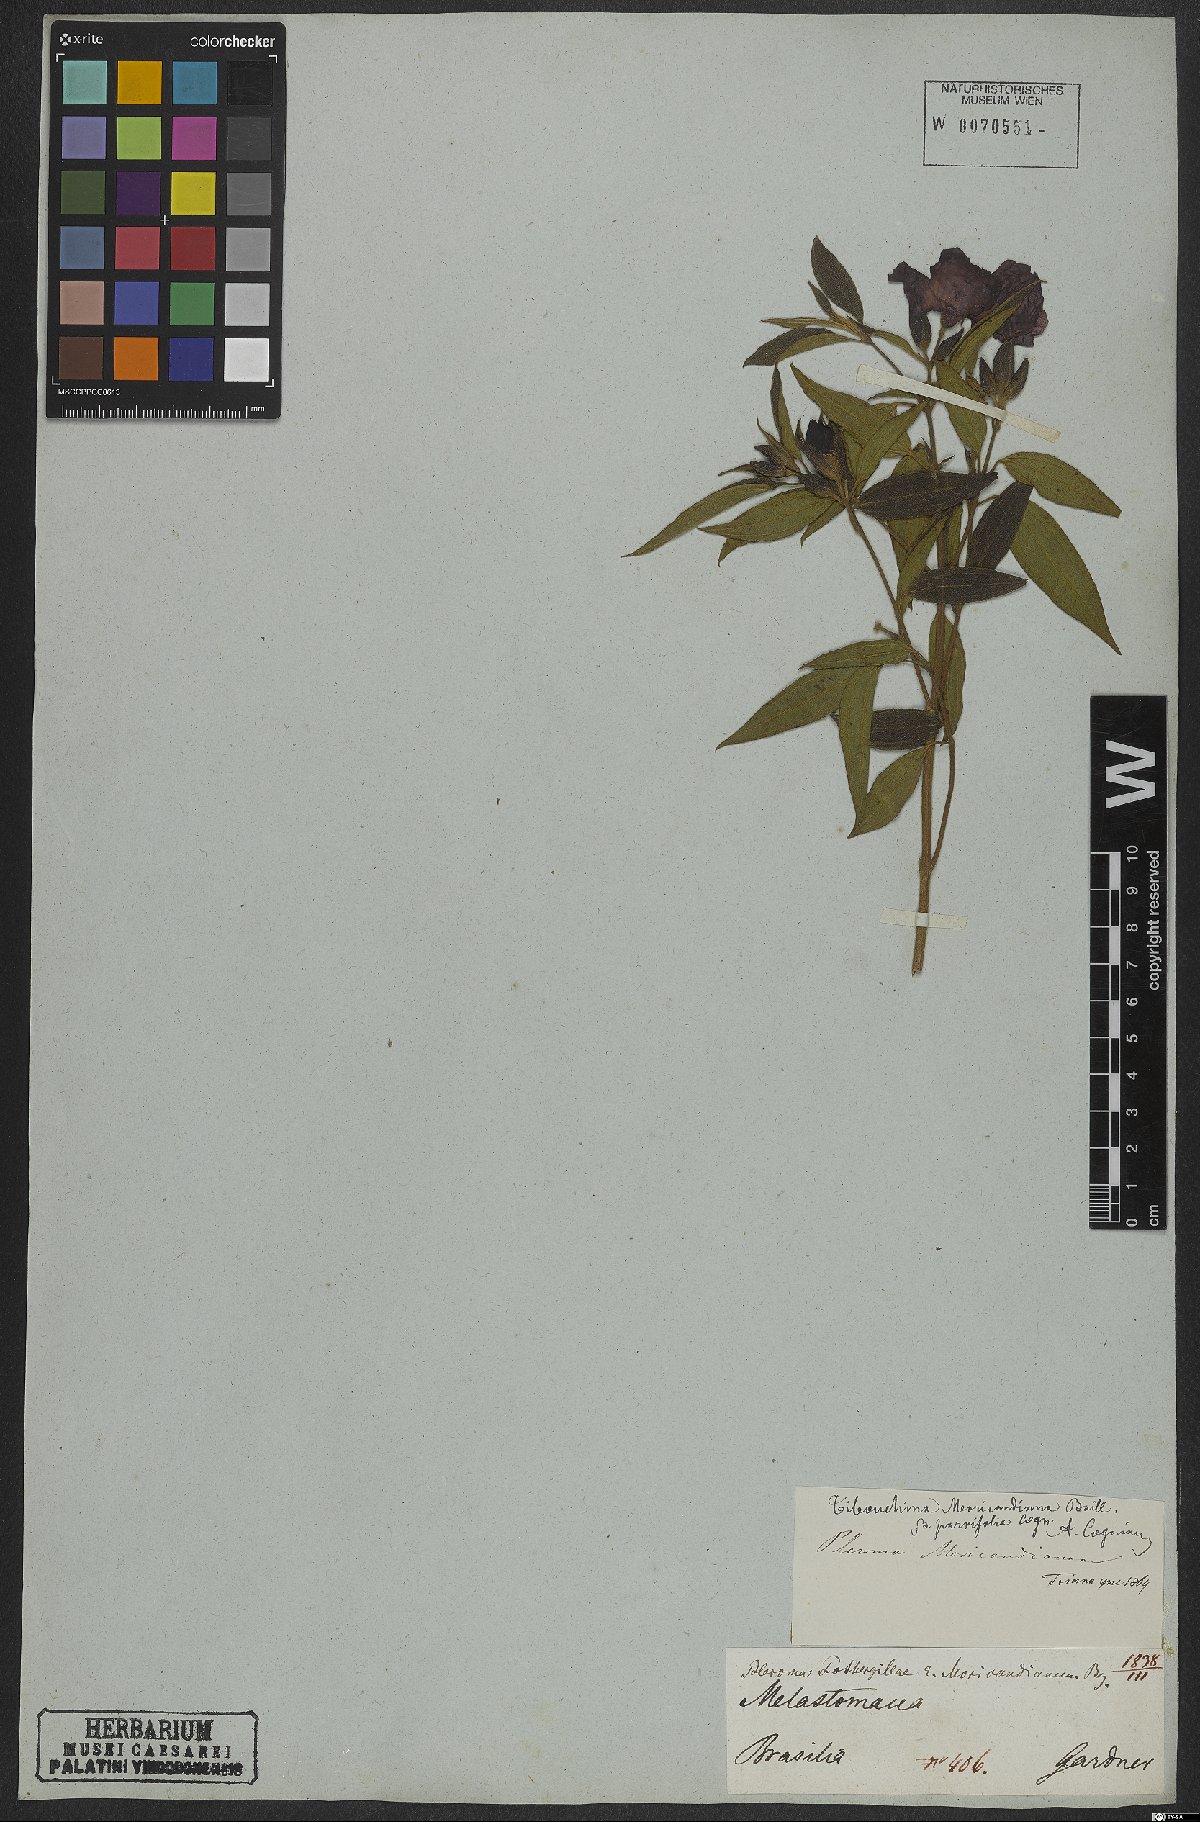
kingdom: Plantae
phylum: Tracheophyta
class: Magnoliopsida
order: Myrtales
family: Melastomataceae
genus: Pleroma
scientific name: Pleroma gaudichaudianum
